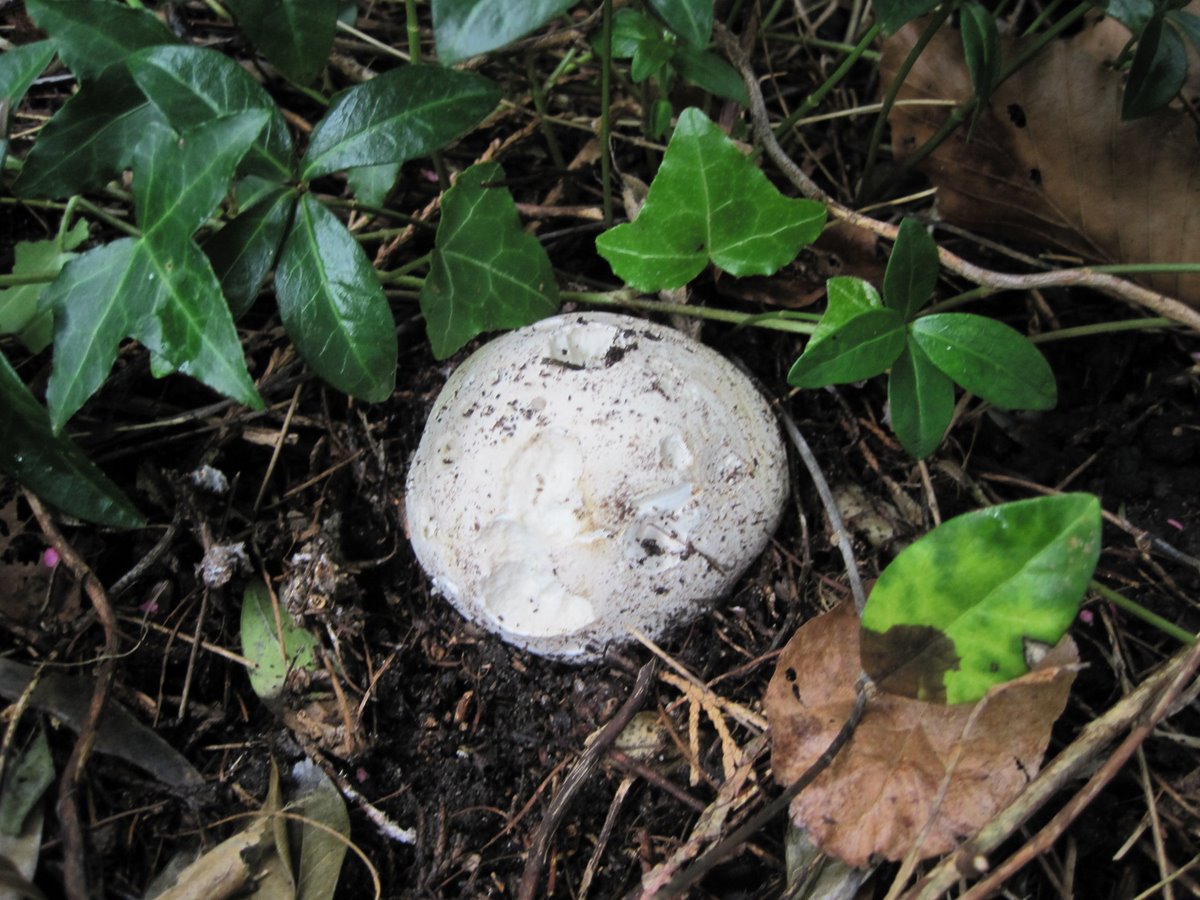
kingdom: Fungi
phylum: Basidiomycota
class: Agaricomycetes
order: Agaricales
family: Lycoperdaceae
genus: Calvatia
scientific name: Calvatia gigantea
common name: kæmpestøvbold
